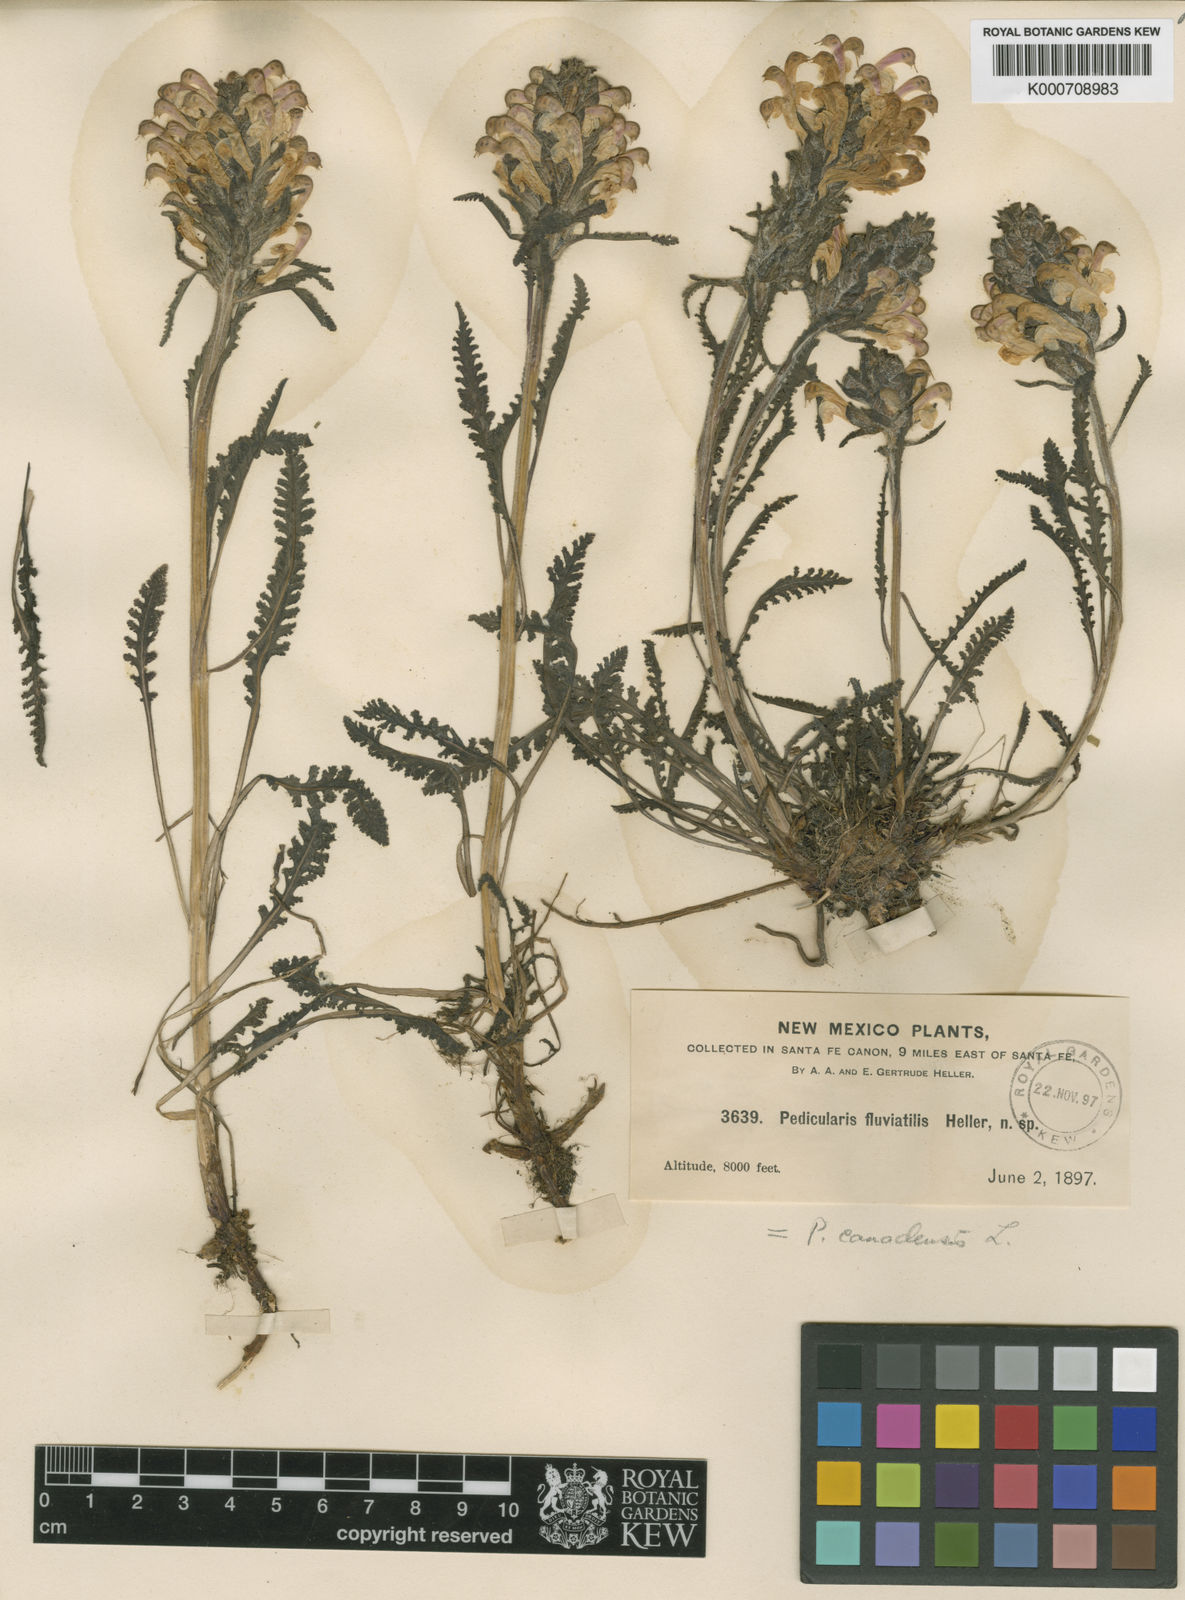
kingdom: Plantae
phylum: Tracheophyta
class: Magnoliopsida
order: Lamiales
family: Orobanchaceae
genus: Pedicularis
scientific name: Pedicularis canadensis
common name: Early lousewort
